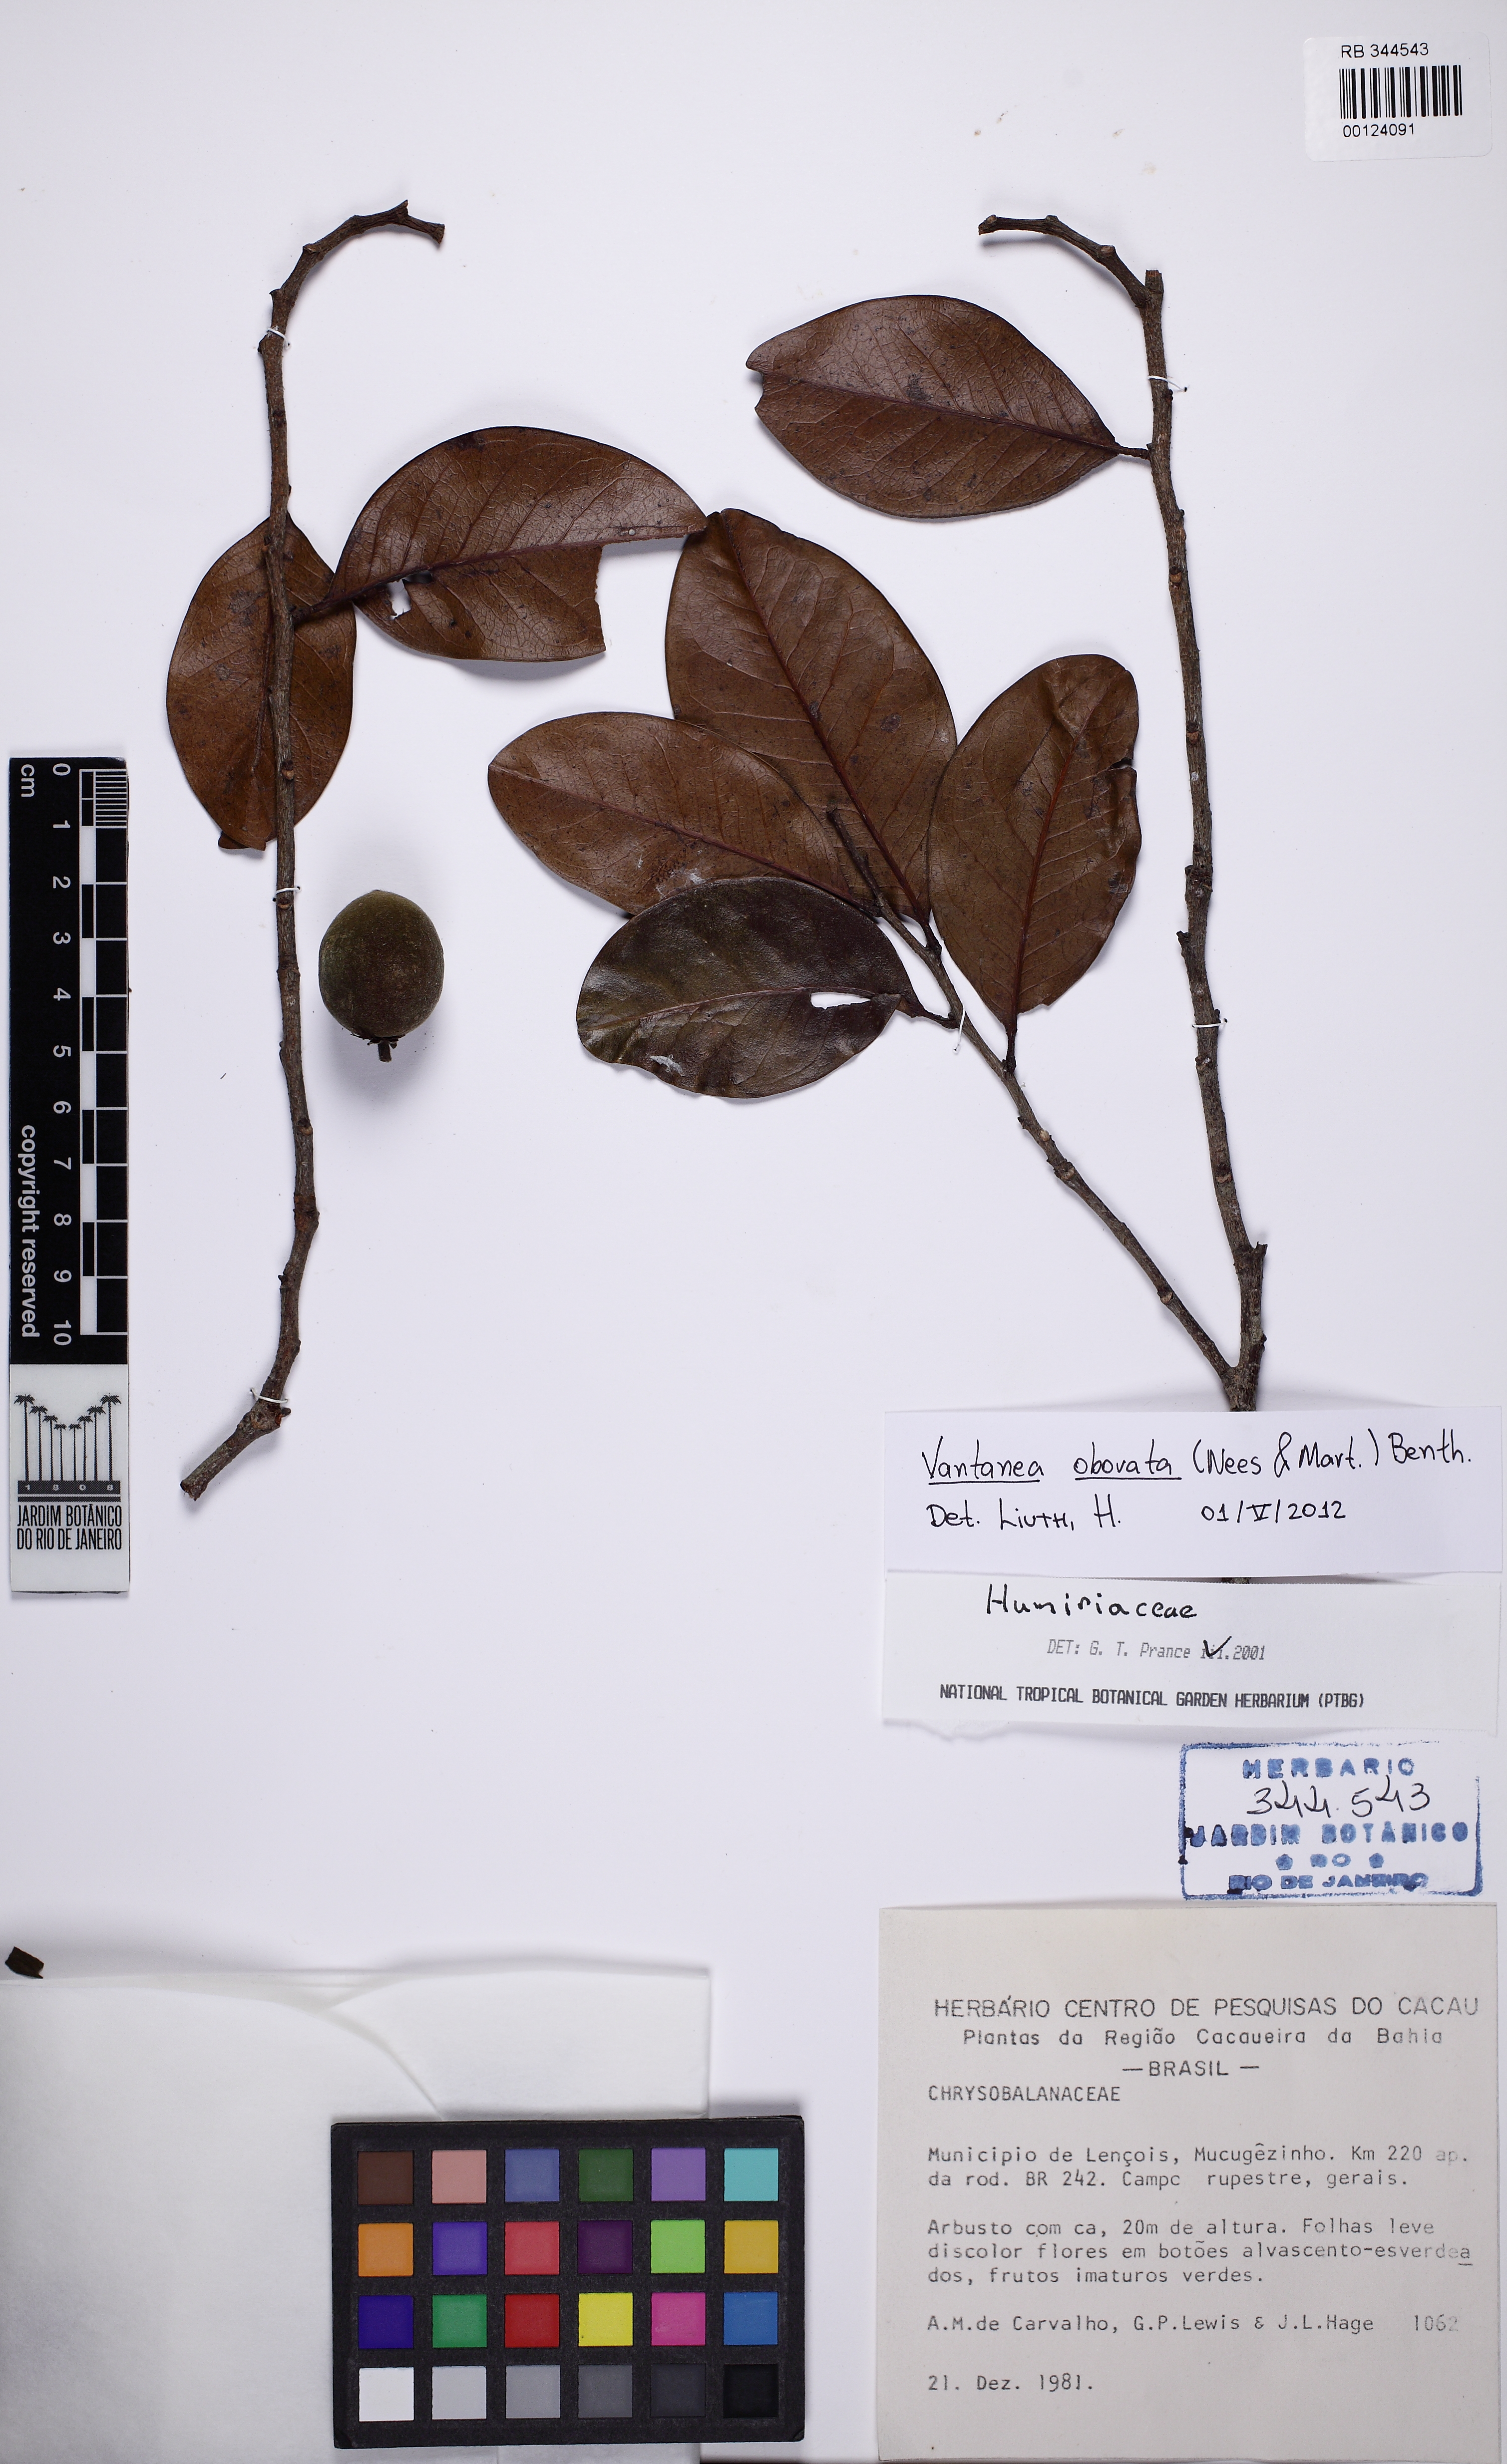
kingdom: Plantae
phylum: Tracheophyta
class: Magnoliopsida
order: Malpighiales
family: Humiriaceae
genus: Vantanea
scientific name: Vantanea obovata
